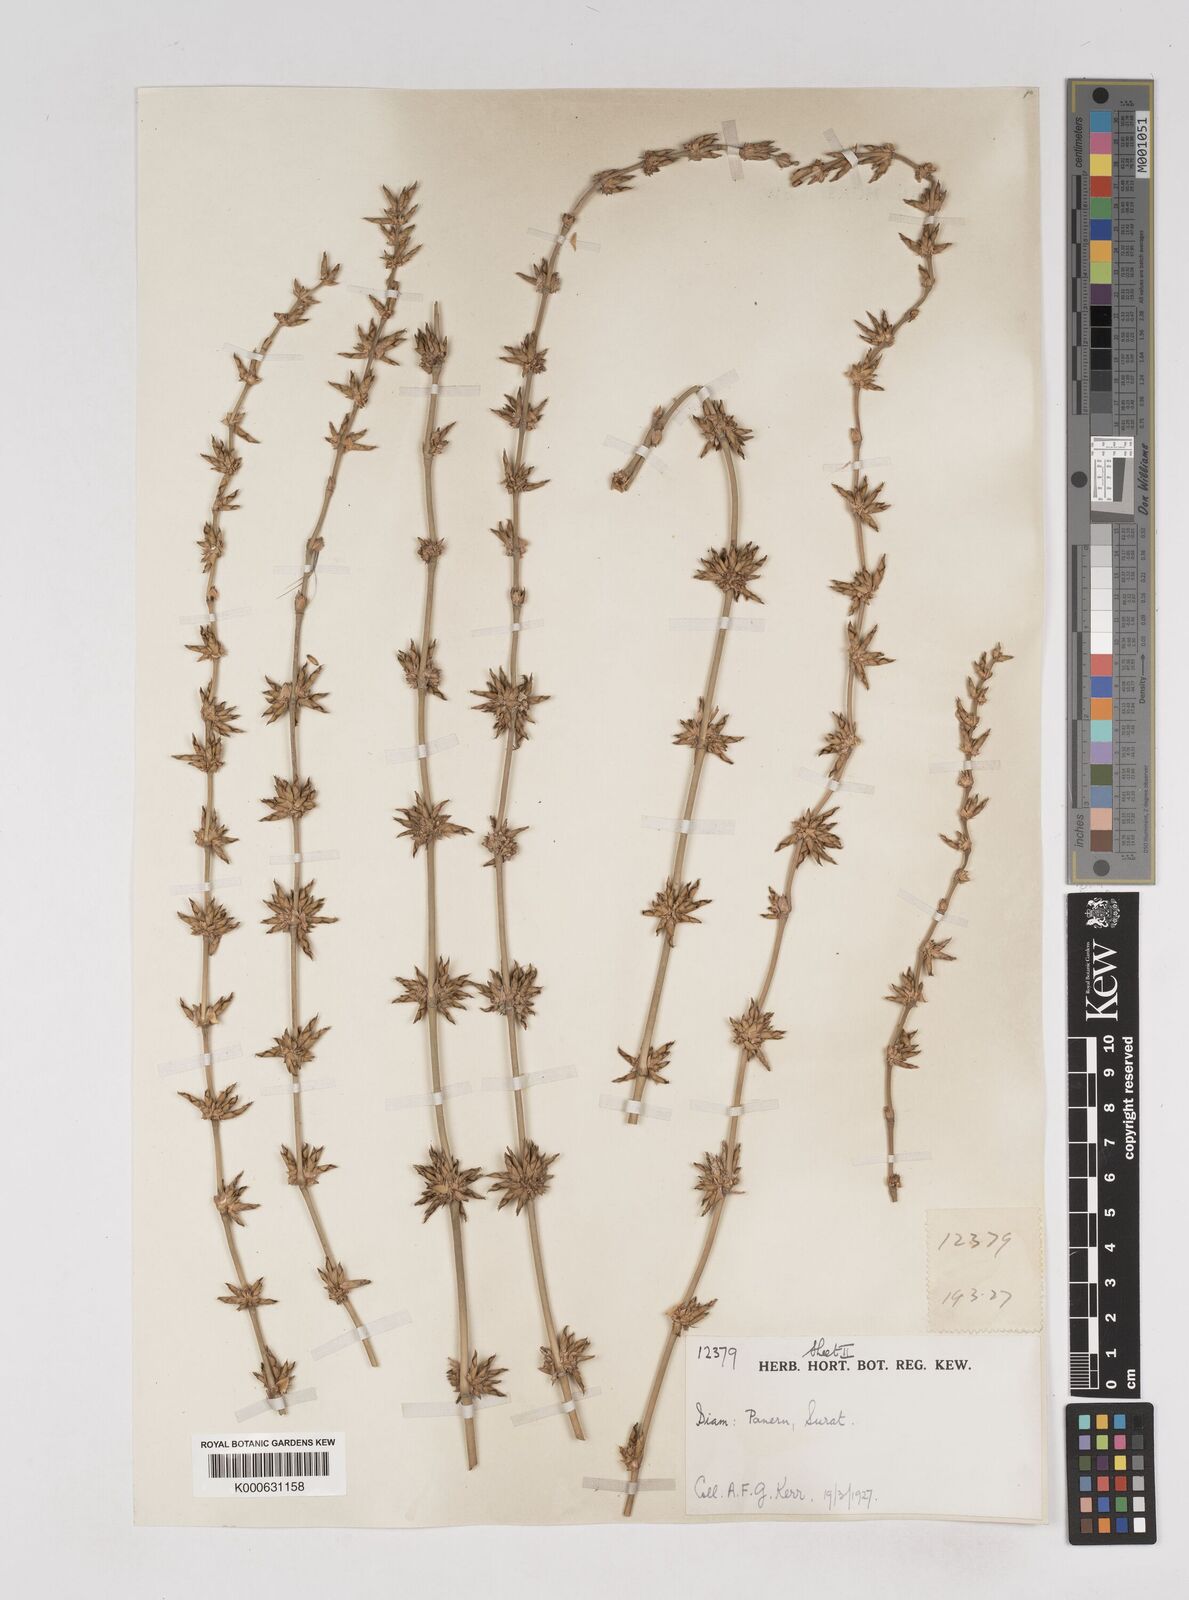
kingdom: Plantae
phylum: Tracheophyta
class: Liliopsida
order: Poales
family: Poaceae
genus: Gigantochloa
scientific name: Gigantochloa
